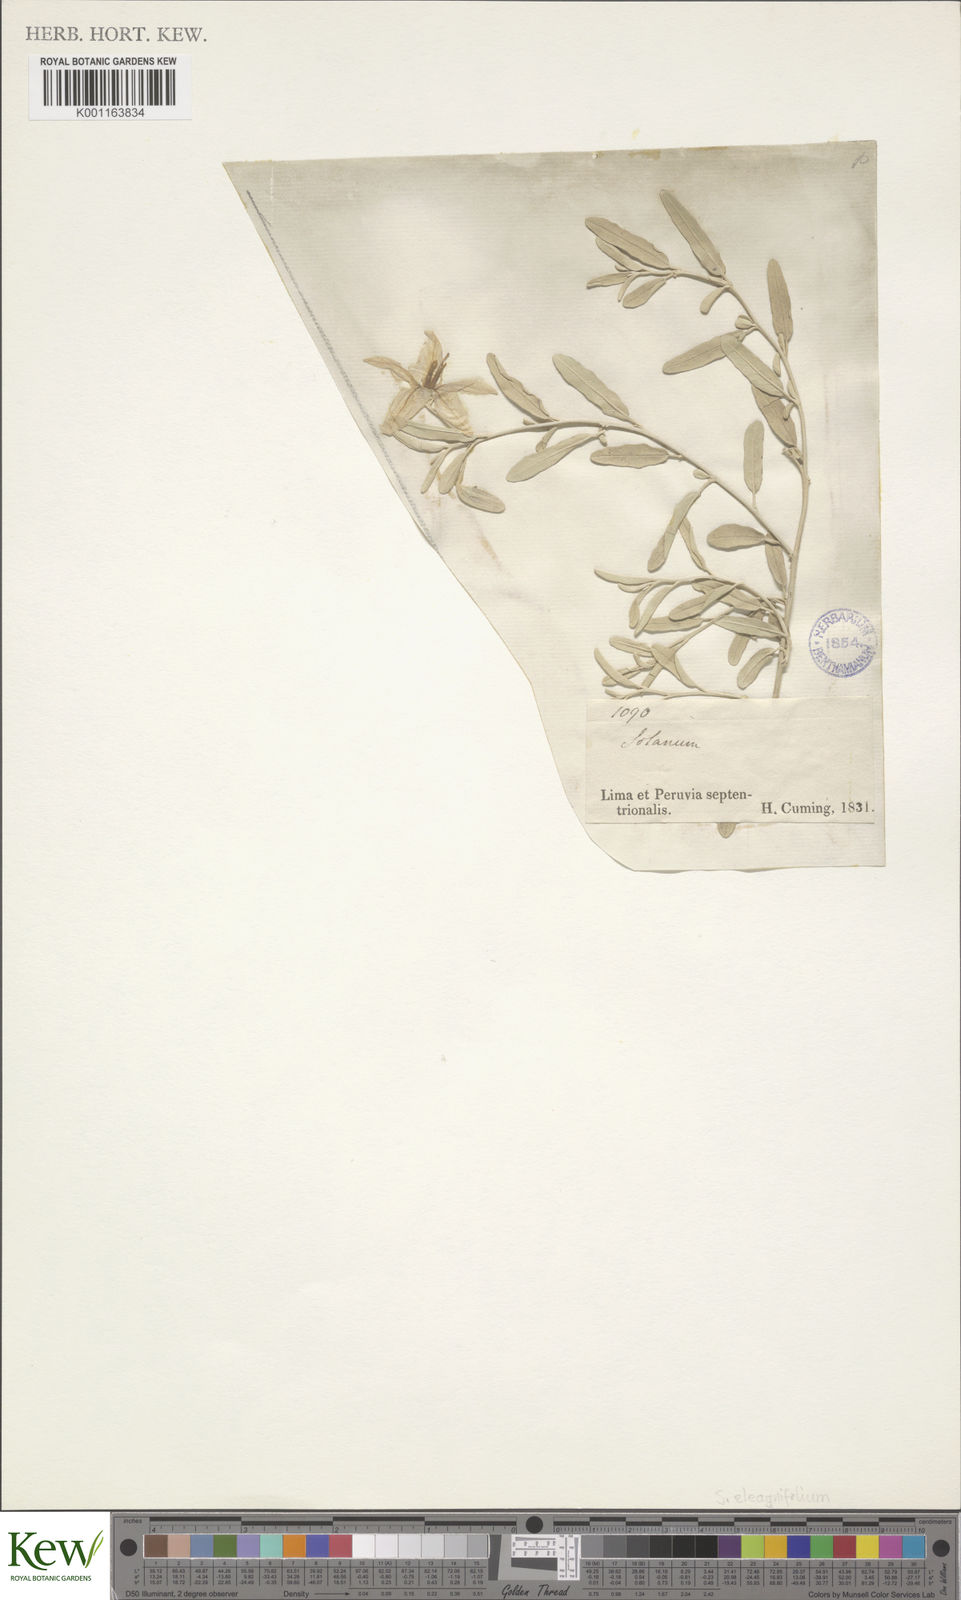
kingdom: Plantae
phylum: Tracheophyta
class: Magnoliopsida
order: Solanales
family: Solanaceae
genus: Solanum
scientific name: Solanum elaeagnifolium
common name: Silverleaf nightshade
